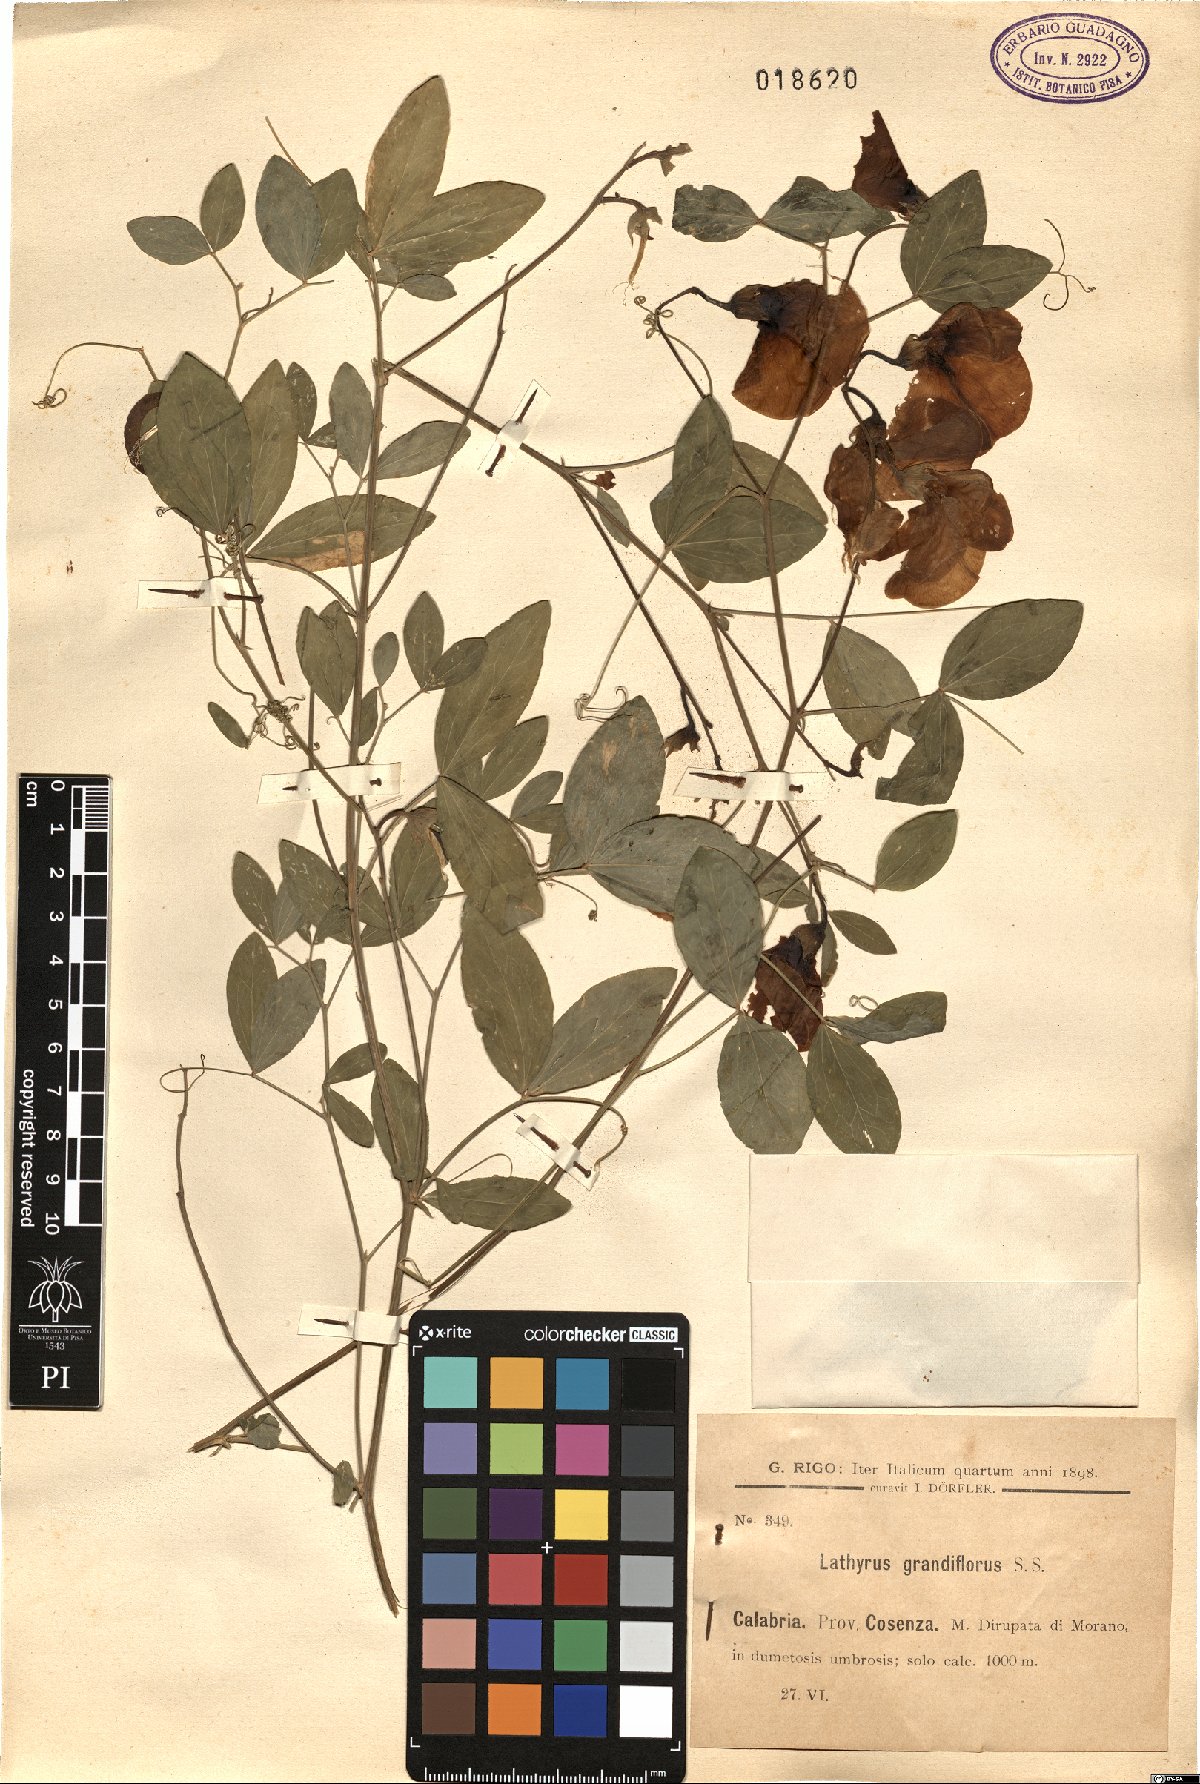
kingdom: Plantae
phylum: Tracheophyta
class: Magnoliopsida
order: Fabales
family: Fabaceae
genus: Lathyrus
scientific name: Lathyrus grandiflorus
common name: Two-flowered everlasting-pea
